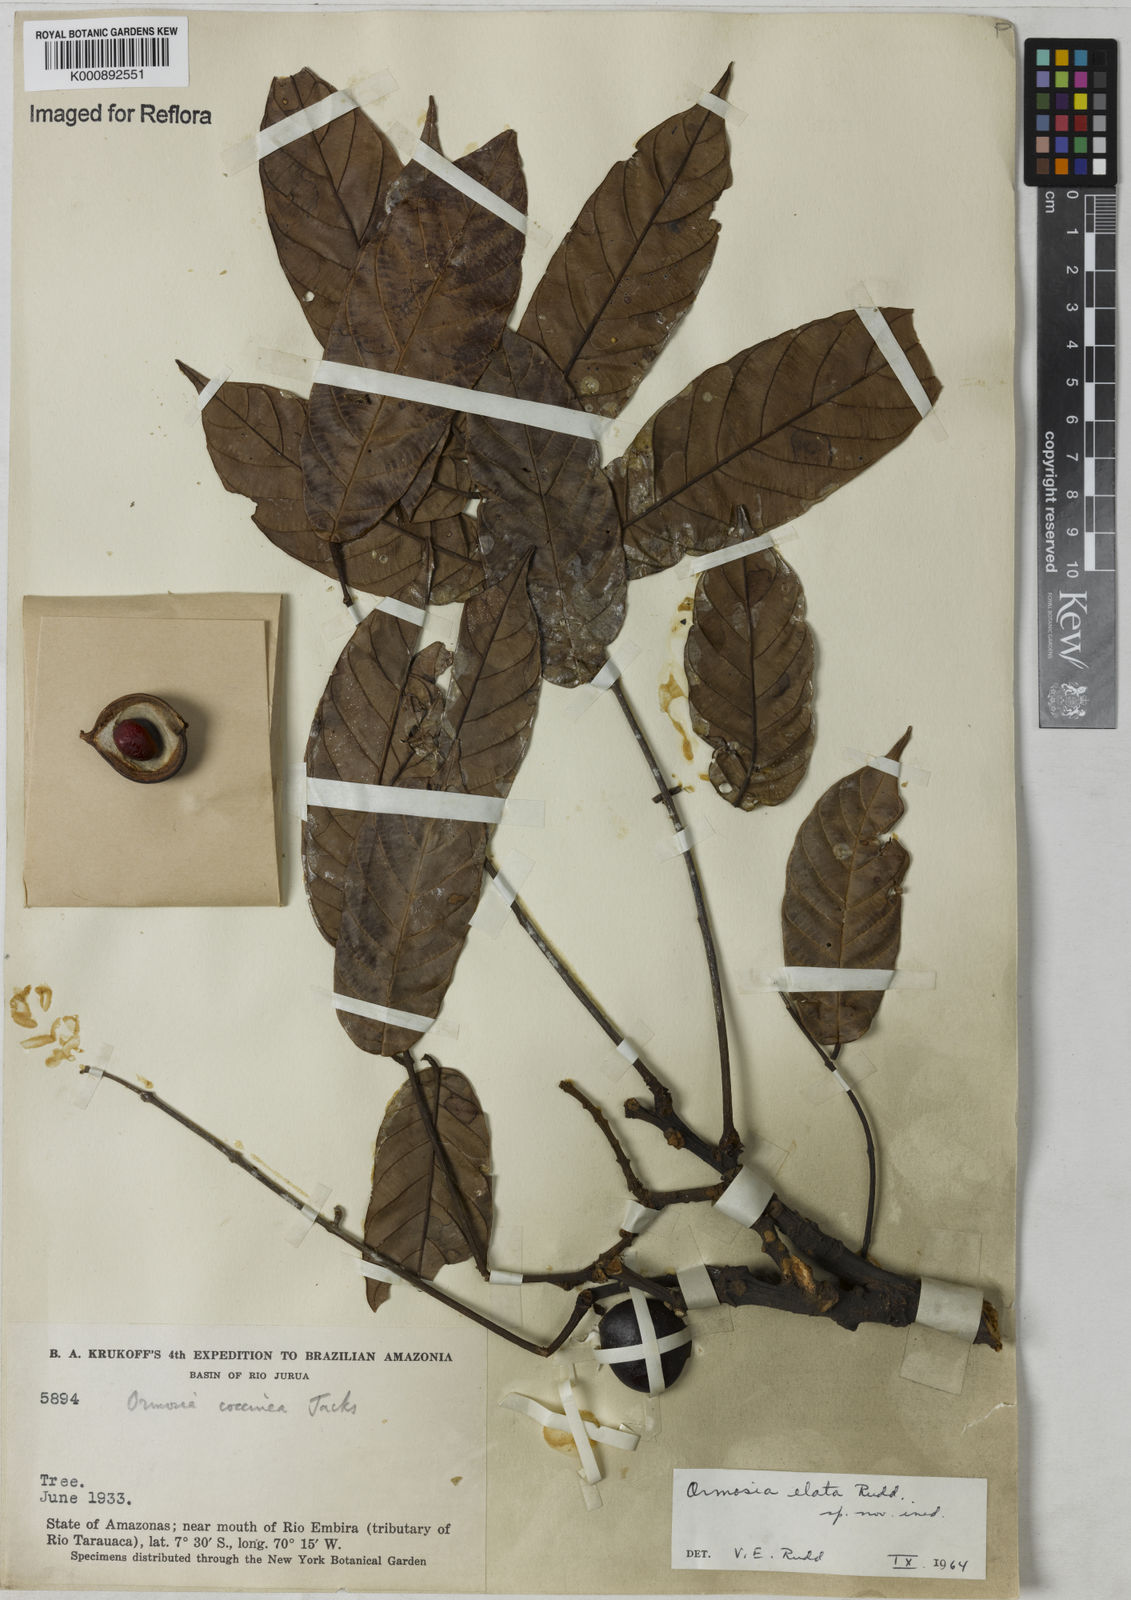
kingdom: Plantae
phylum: Tracheophyta
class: Magnoliopsida
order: Fabales
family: Fabaceae
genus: Ormosia
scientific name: Ormosia smithii
